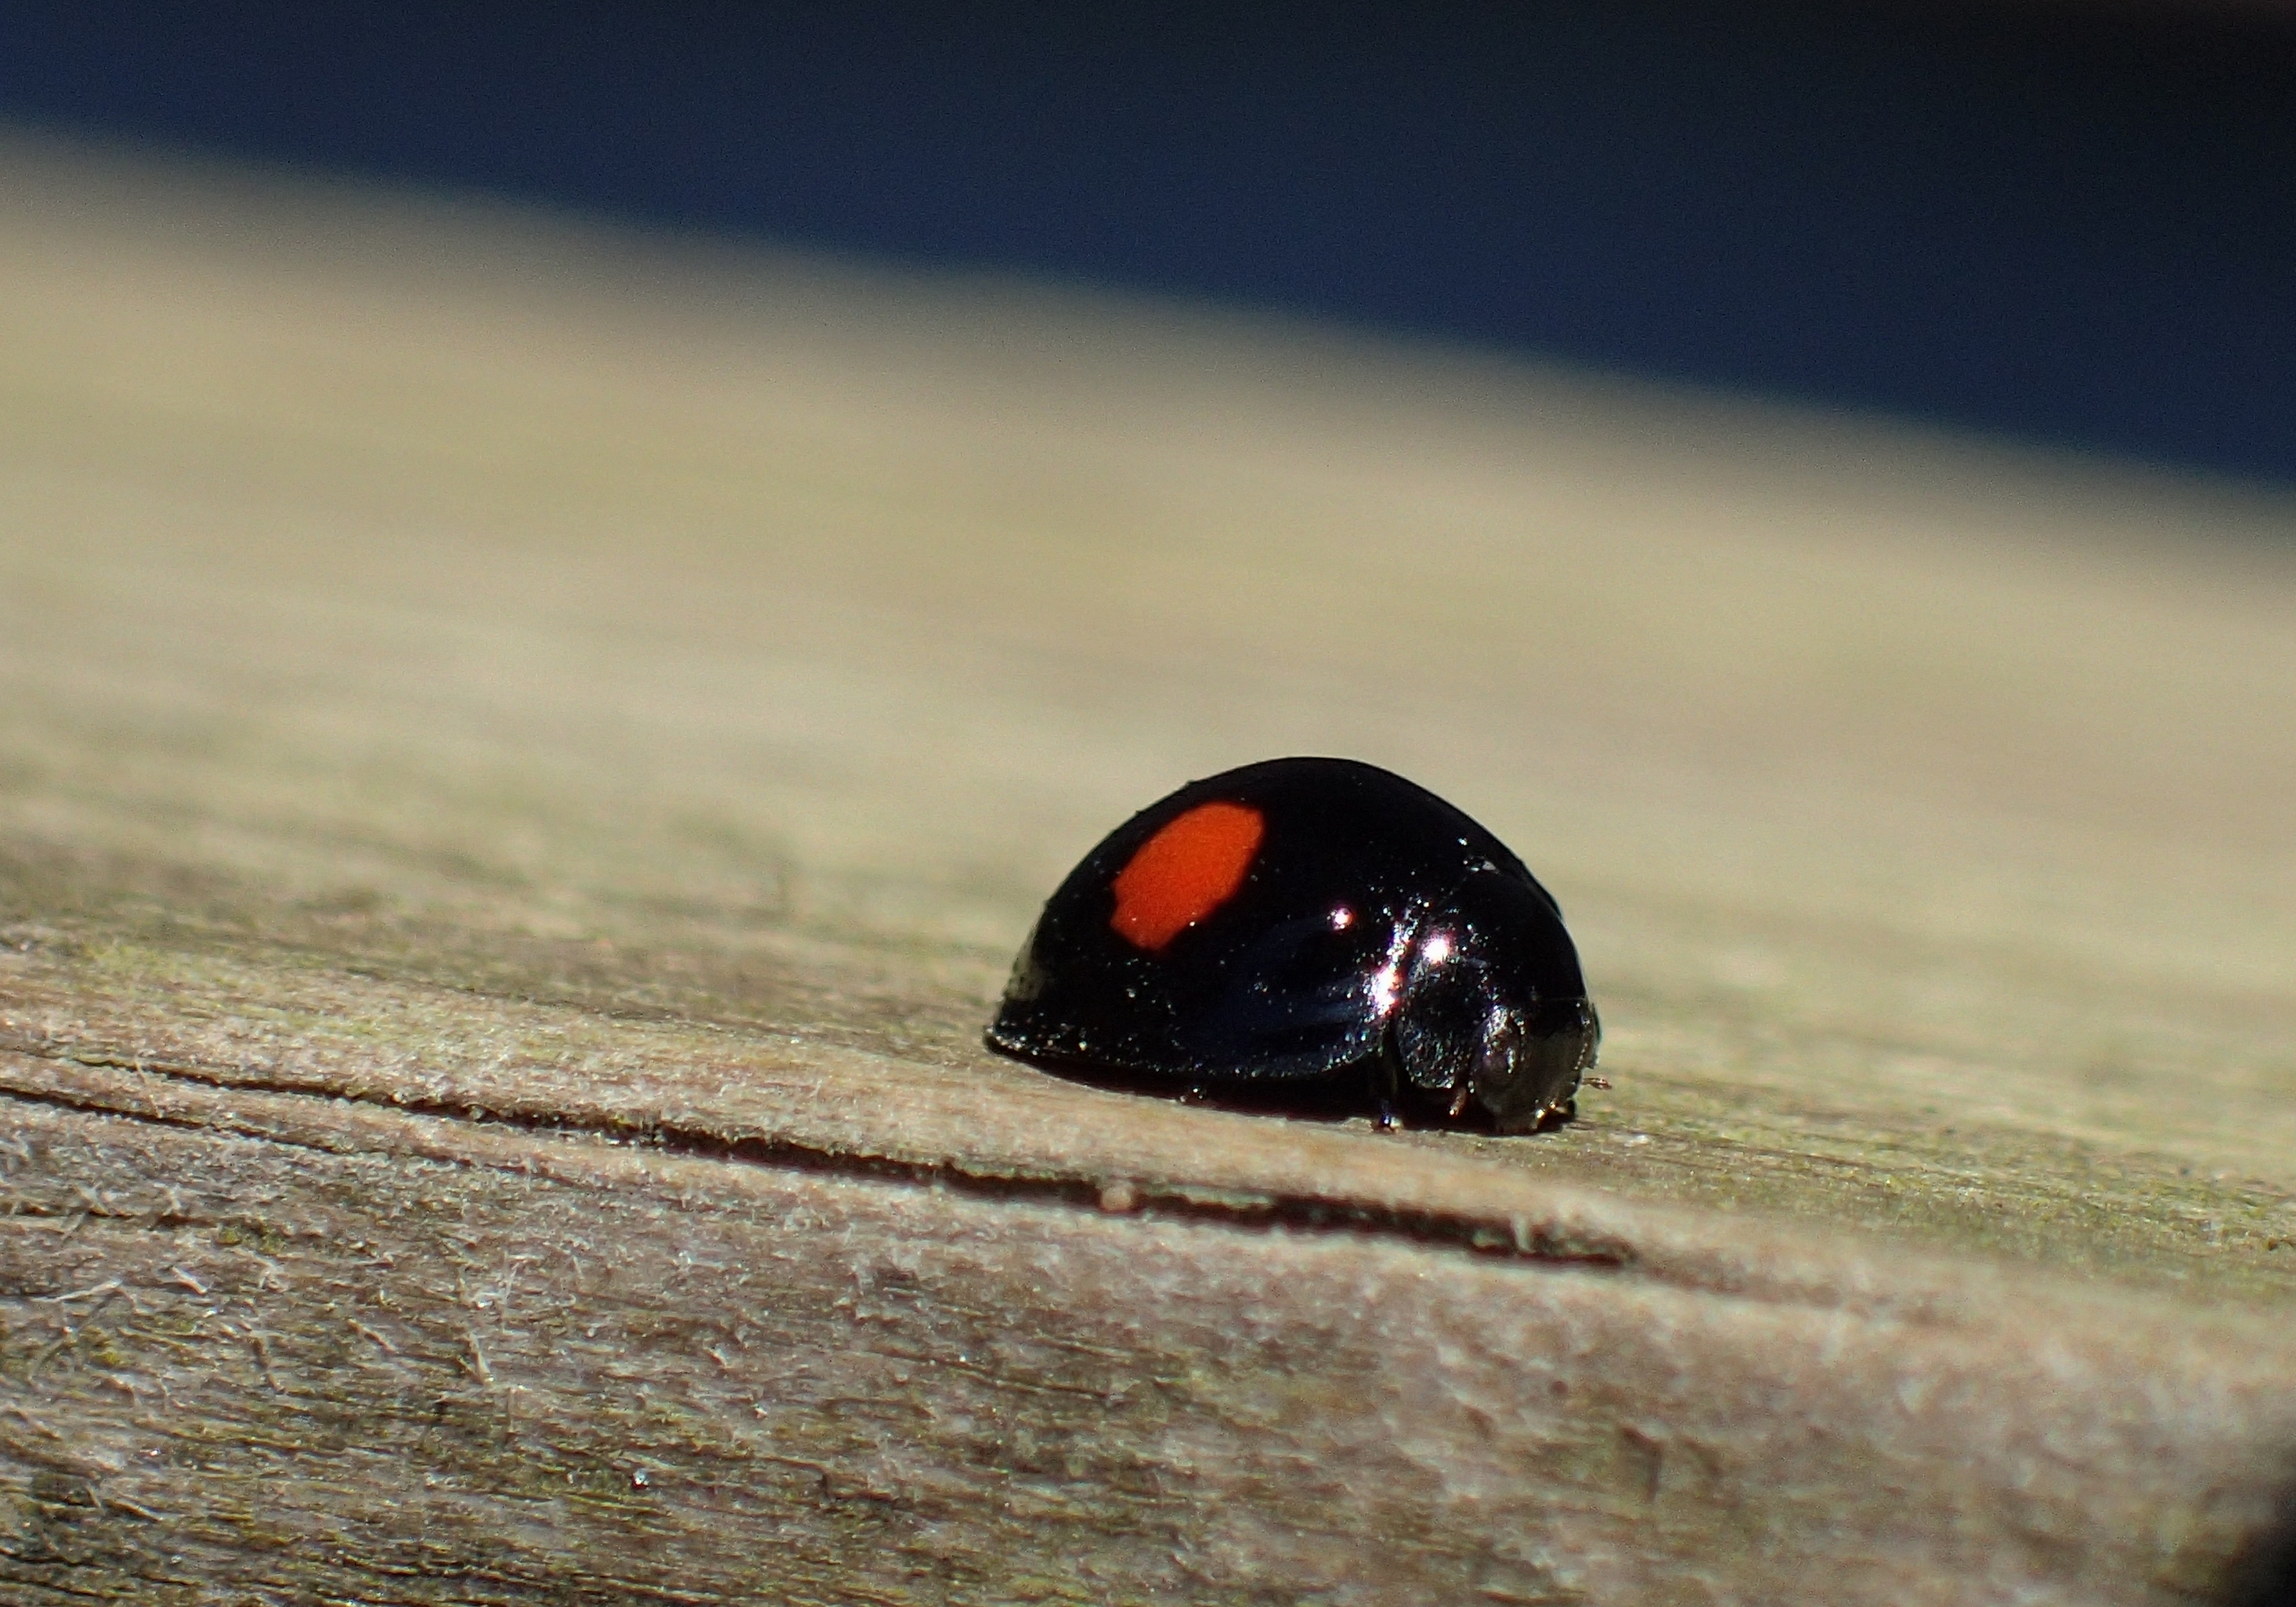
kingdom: Animalia
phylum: Arthropoda
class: Insecta
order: Coleoptera
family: Coccinellidae
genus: Chilocorus
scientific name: Chilocorus renipustulatus
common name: Askemariehøne
